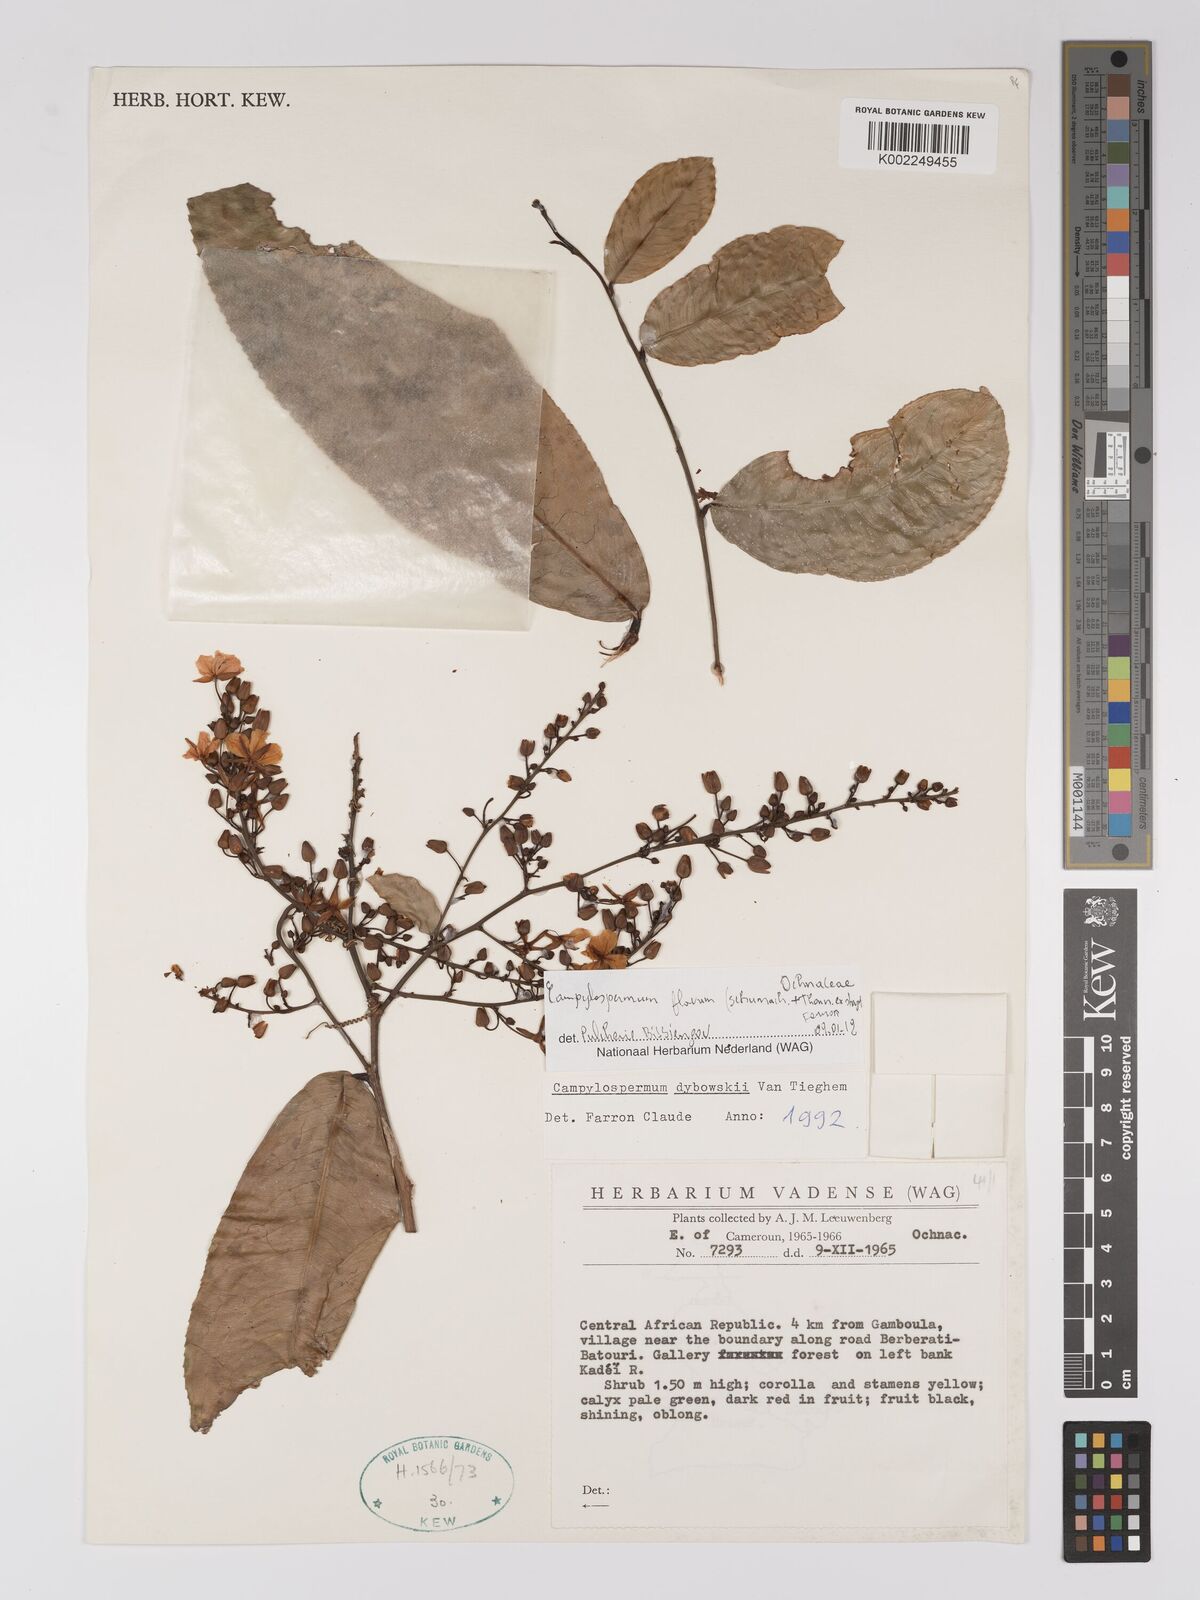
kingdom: Plantae
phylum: Tracheophyta
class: Magnoliopsida
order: Malpighiales
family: Ochnaceae
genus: Campylospermum
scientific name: Campylospermum flavum
